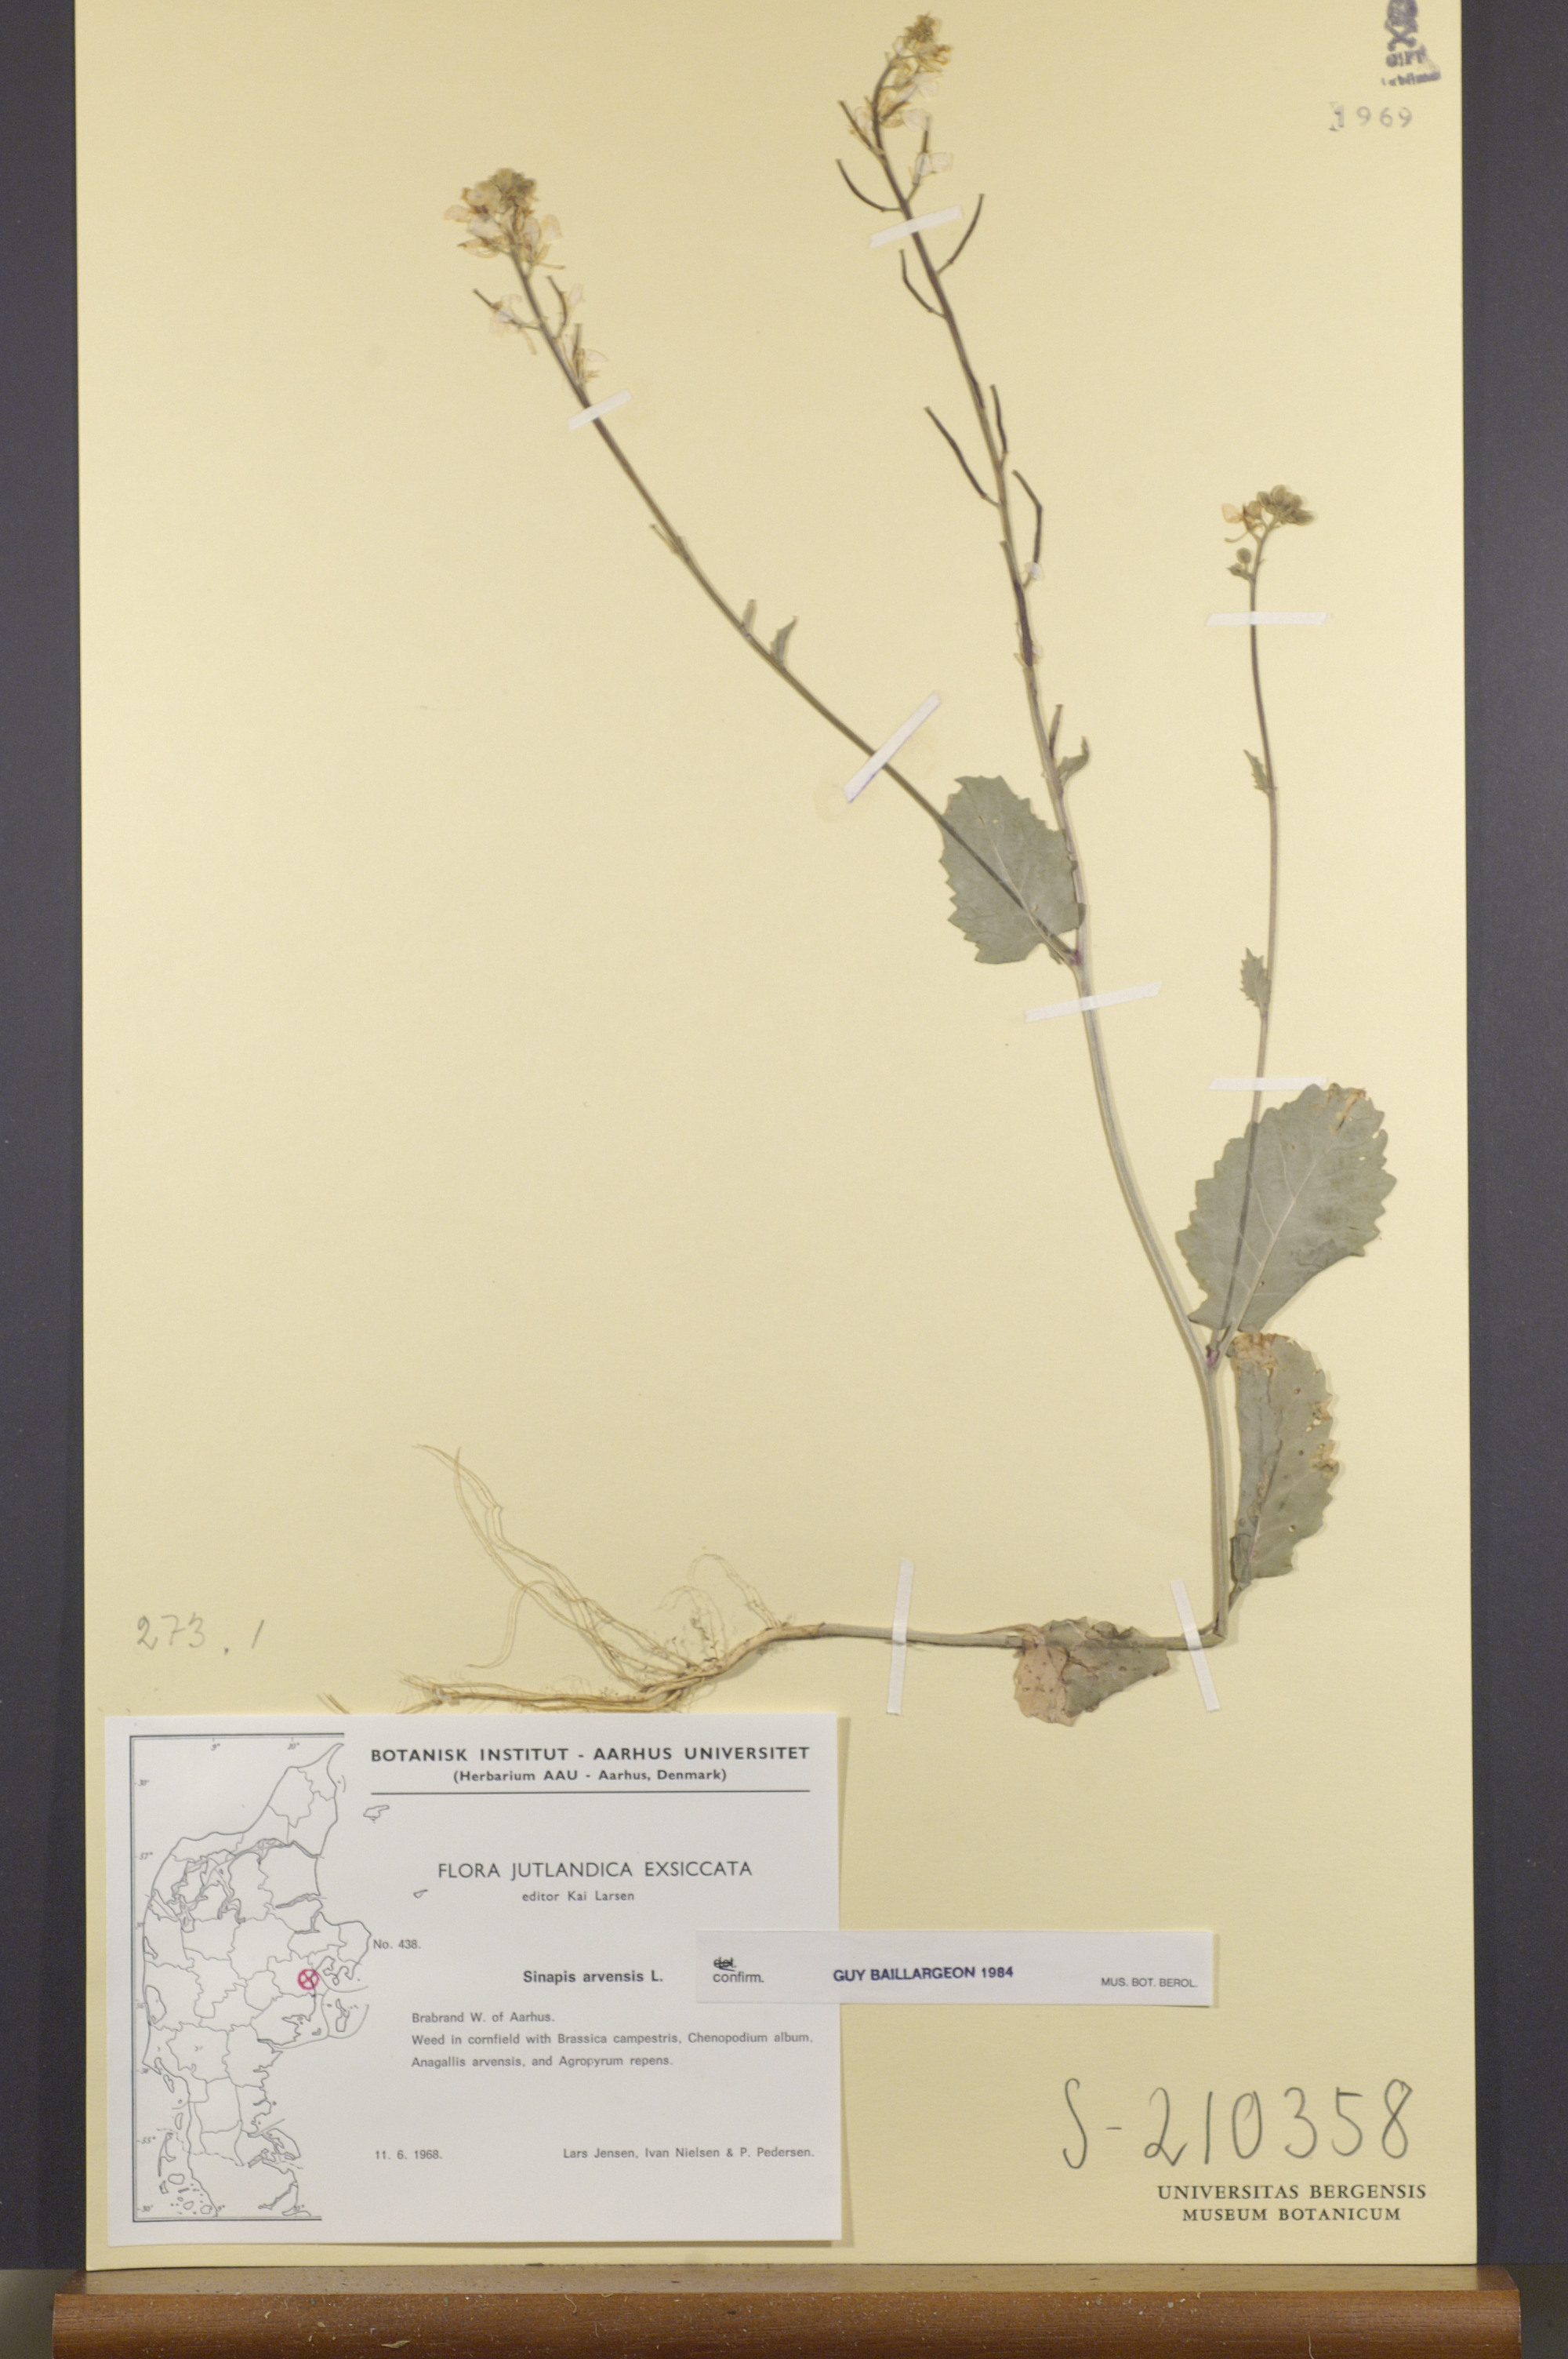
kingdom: Plantae
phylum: Tracheophyta
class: Magnoliopsida
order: Brassicales
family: Brassicaceae
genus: Sinapis
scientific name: Sinapis arvensis
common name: Charlock
